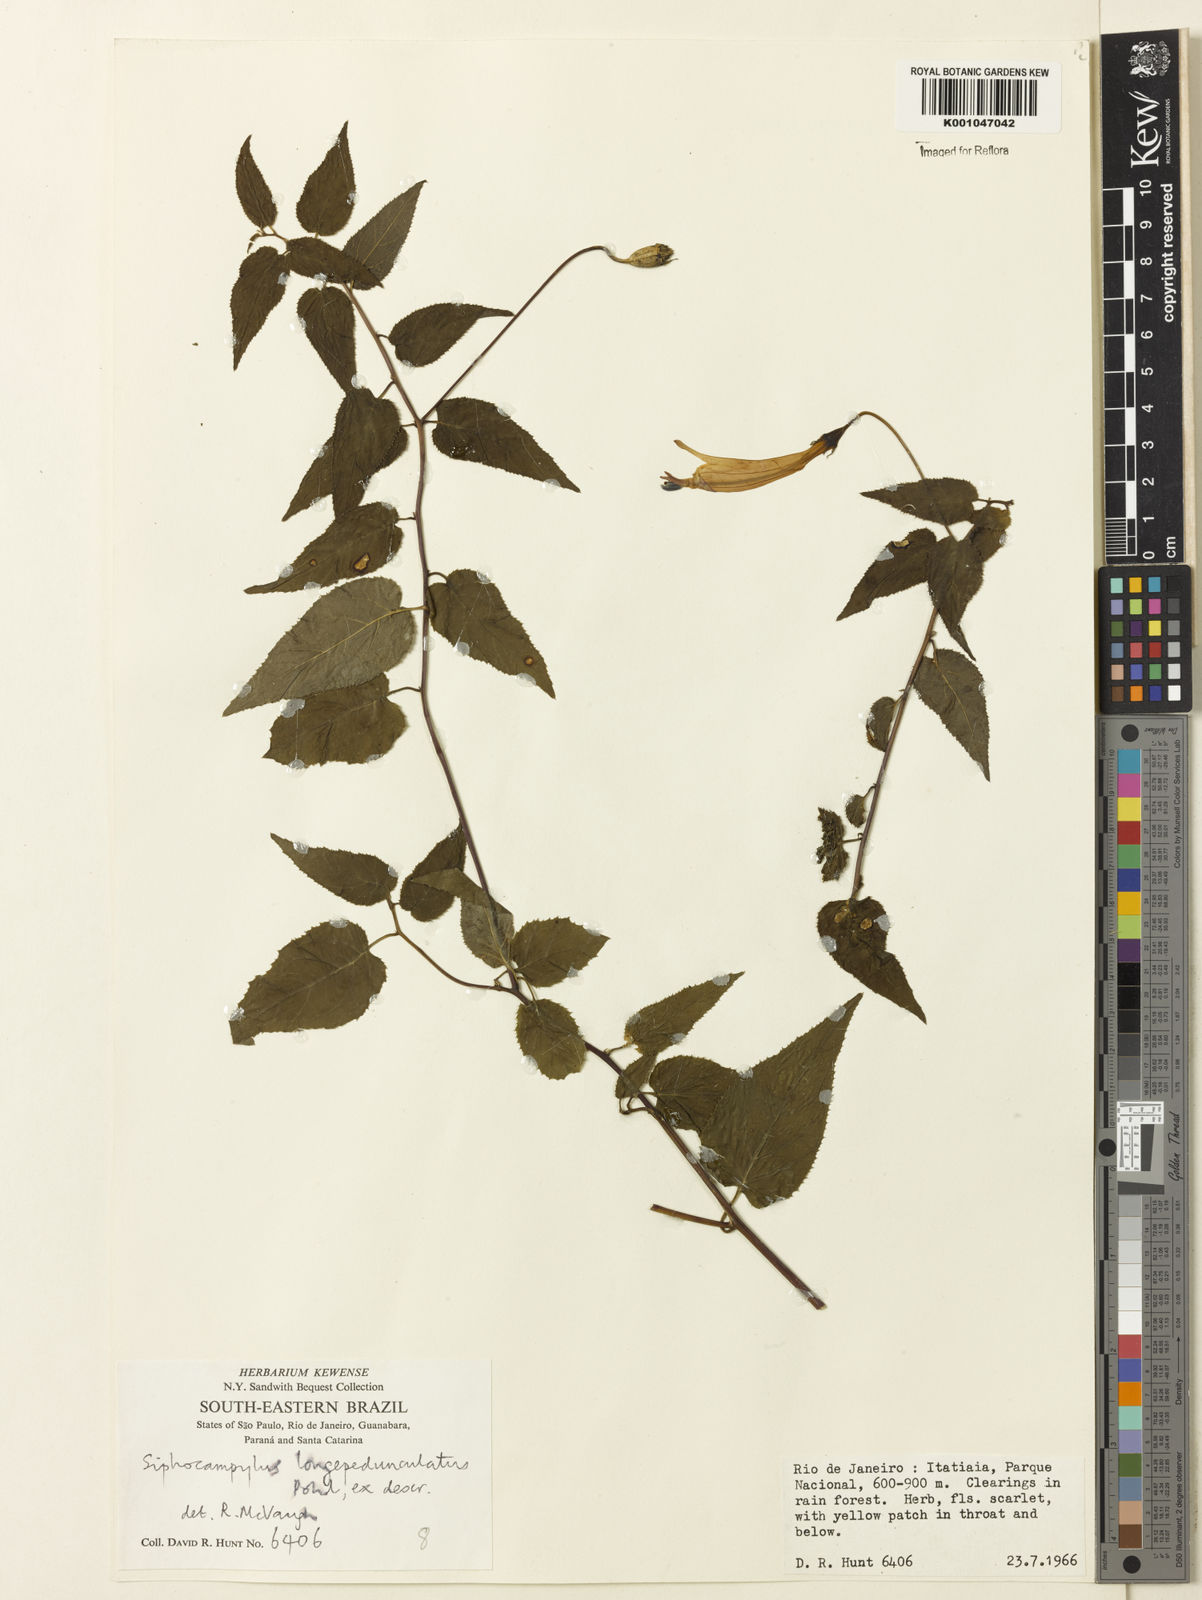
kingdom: Plantae
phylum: Tracheophyta
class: Magnoliopsida
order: Asterales
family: Campanulaceae
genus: Siphocampylus
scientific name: Siphocampylus longipedunculatus
